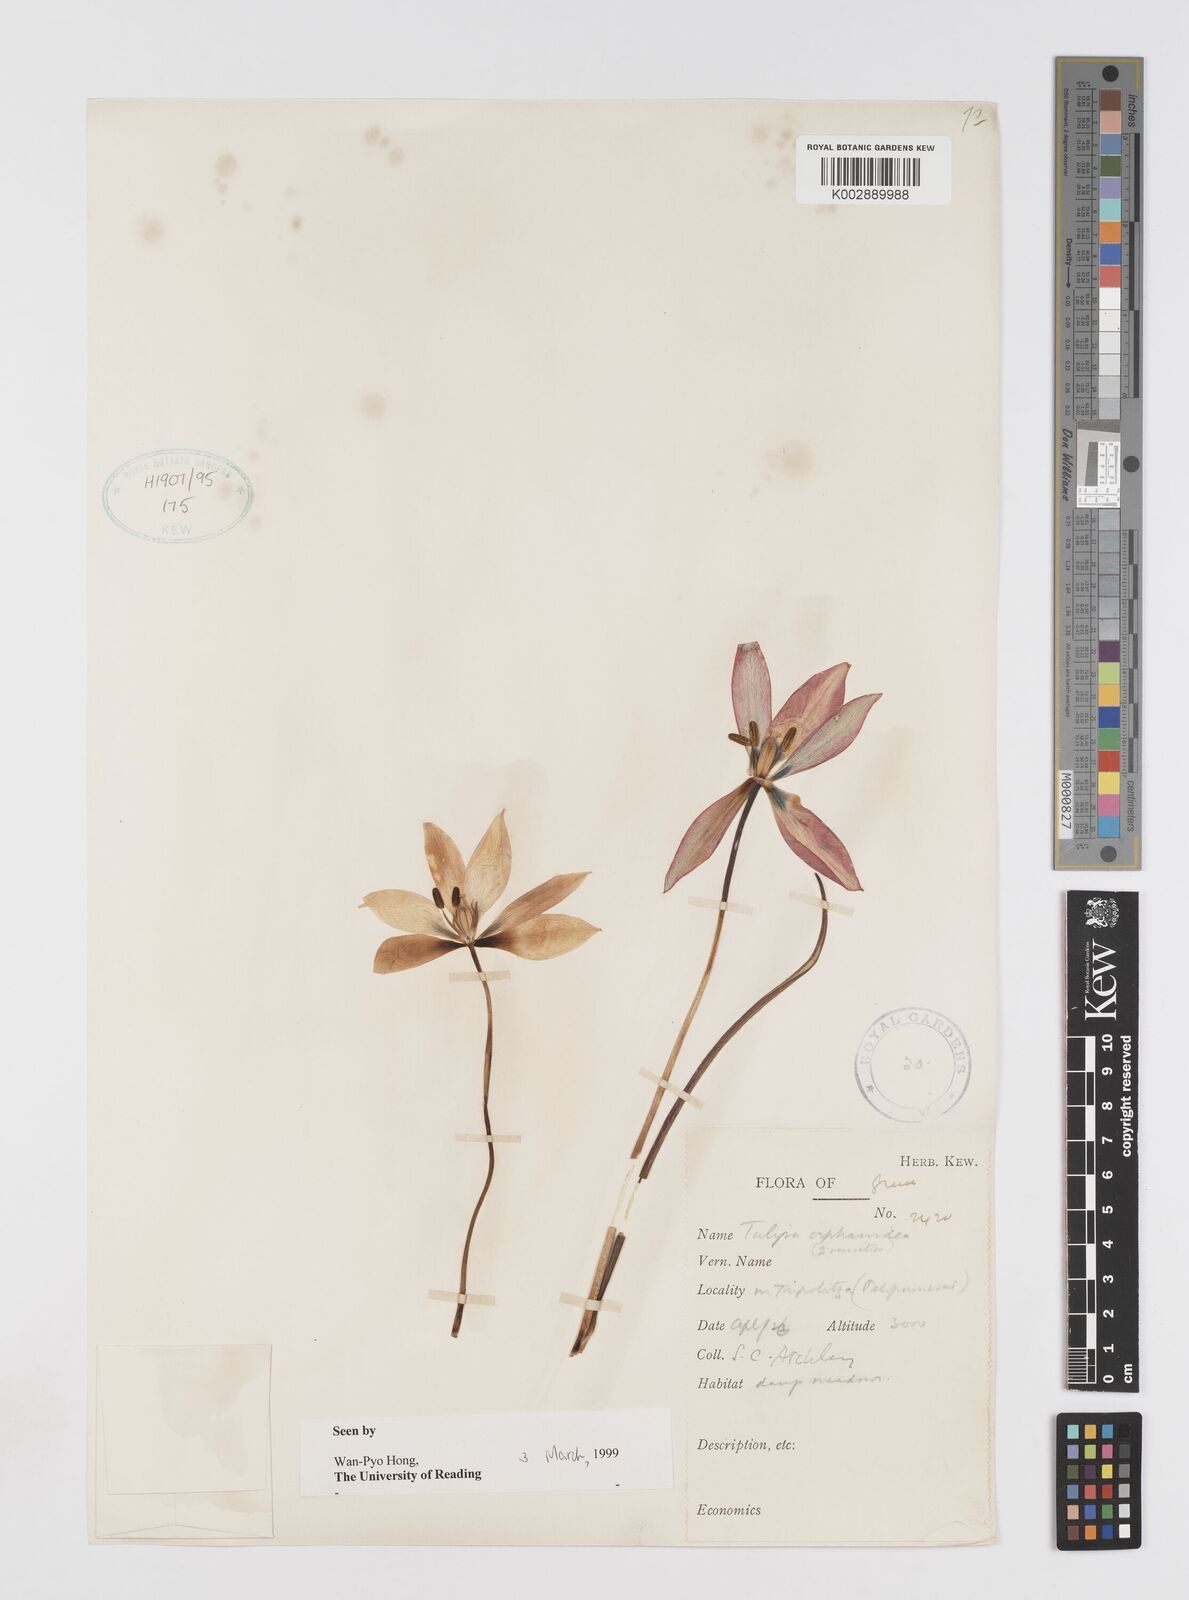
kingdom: Plantae
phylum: Tracheophyta
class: Liliopsida
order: Liliales
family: Liliaceae
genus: Tulipa
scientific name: Tulipa orphanidea
